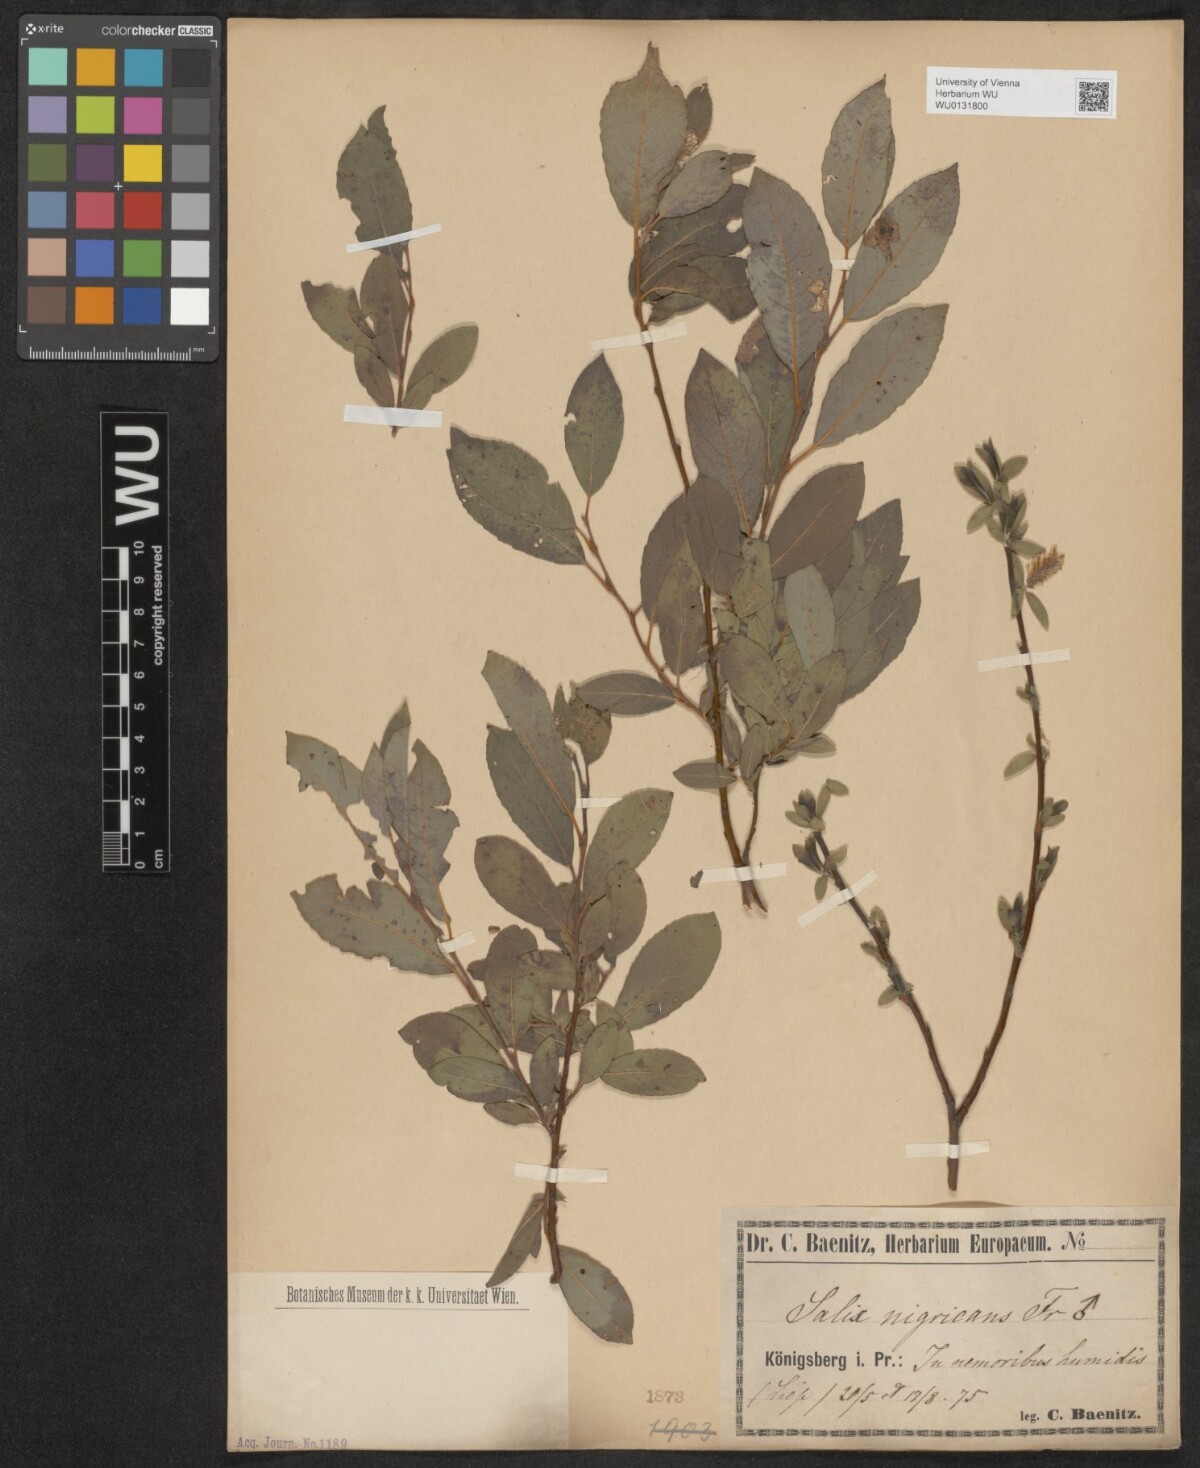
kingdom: Plantae
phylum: Tracheophyta
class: Magnoliopsida
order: Malpighiales
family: Salicaceae
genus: Salix
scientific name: Salix myrsinifolia
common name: Dark-leaved willow
